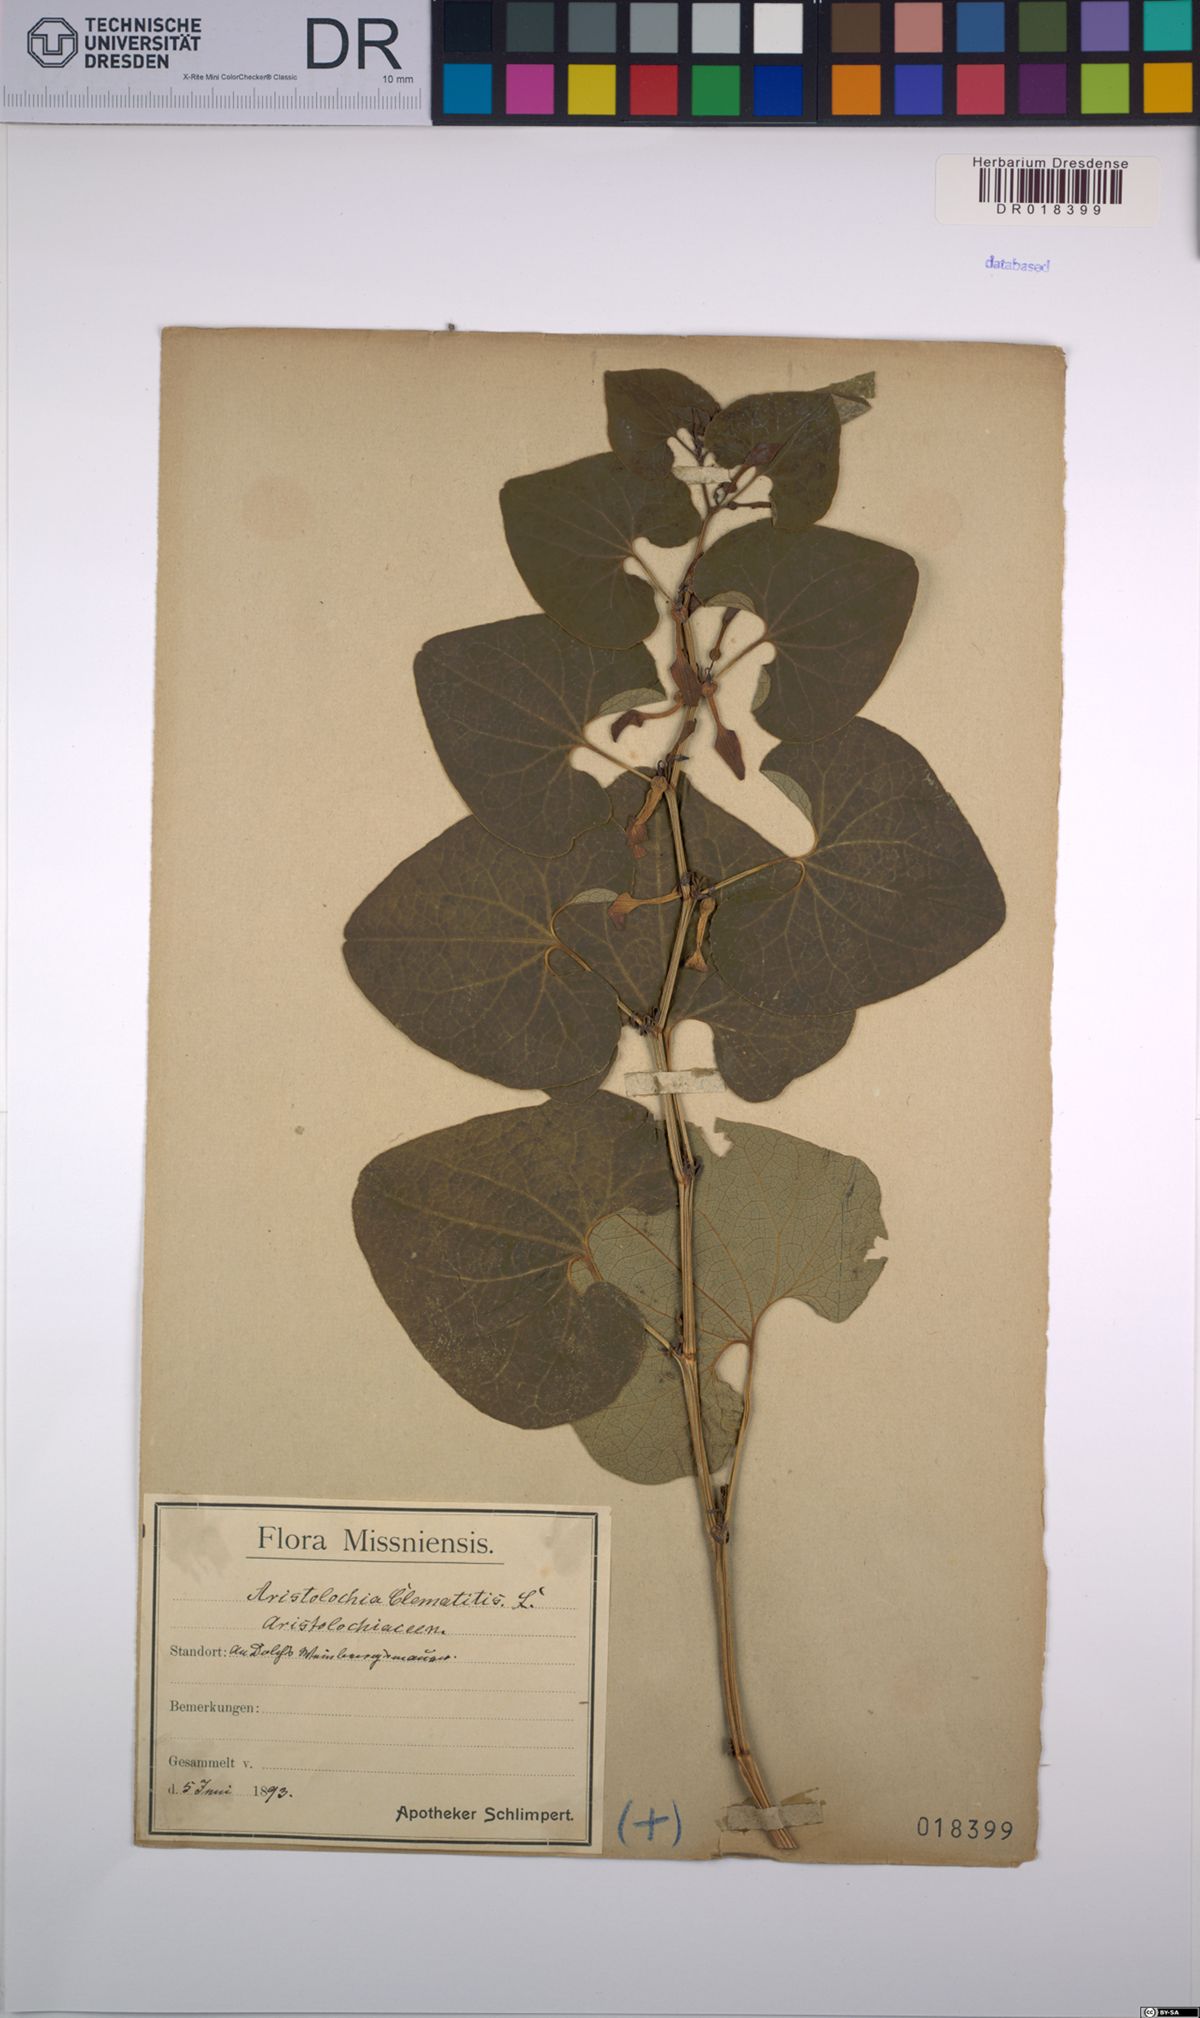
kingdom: Plantae
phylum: Tracheophyta
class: Magnoliopsida
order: Piperales
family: Aristolochiaceae
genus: Aristolochia
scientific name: Aristolochia clematitis
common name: Birthwort
